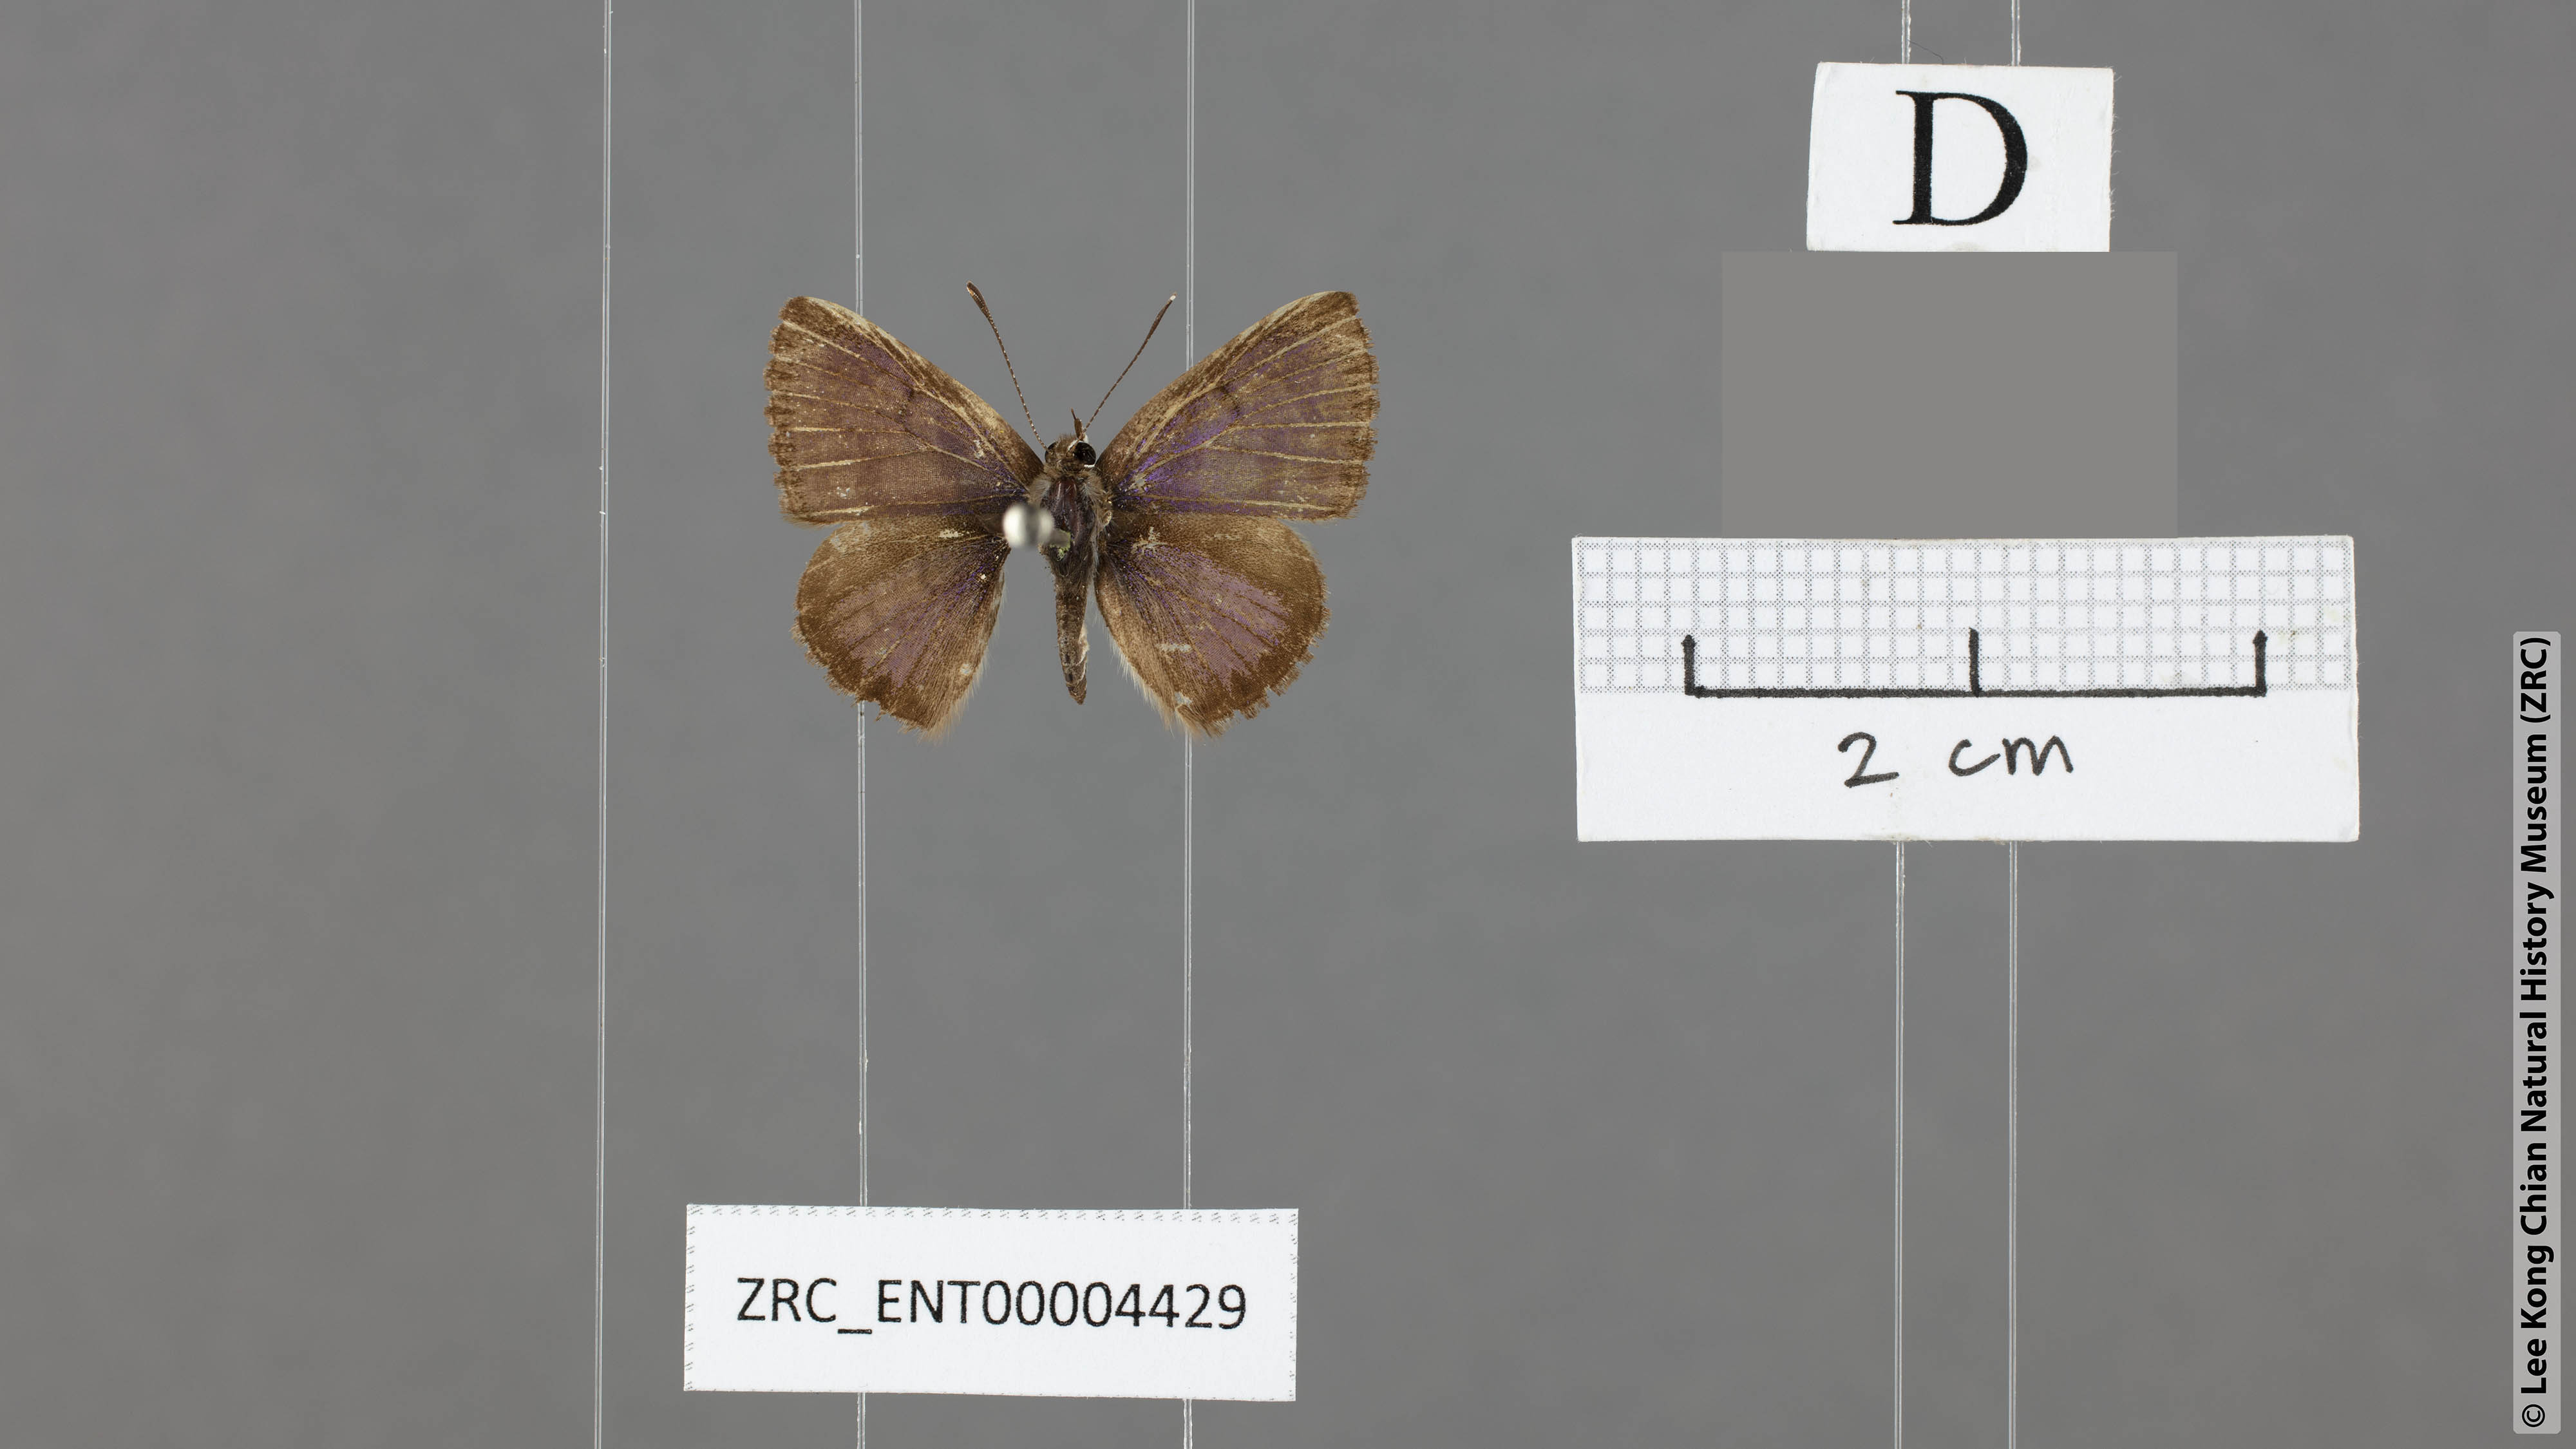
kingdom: Animalia
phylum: Arthropoda
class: Insecta
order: Lepidoptera
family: Lycaenidae
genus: Niphanda
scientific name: Niphanda cymbia
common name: Small pointed pierrot
